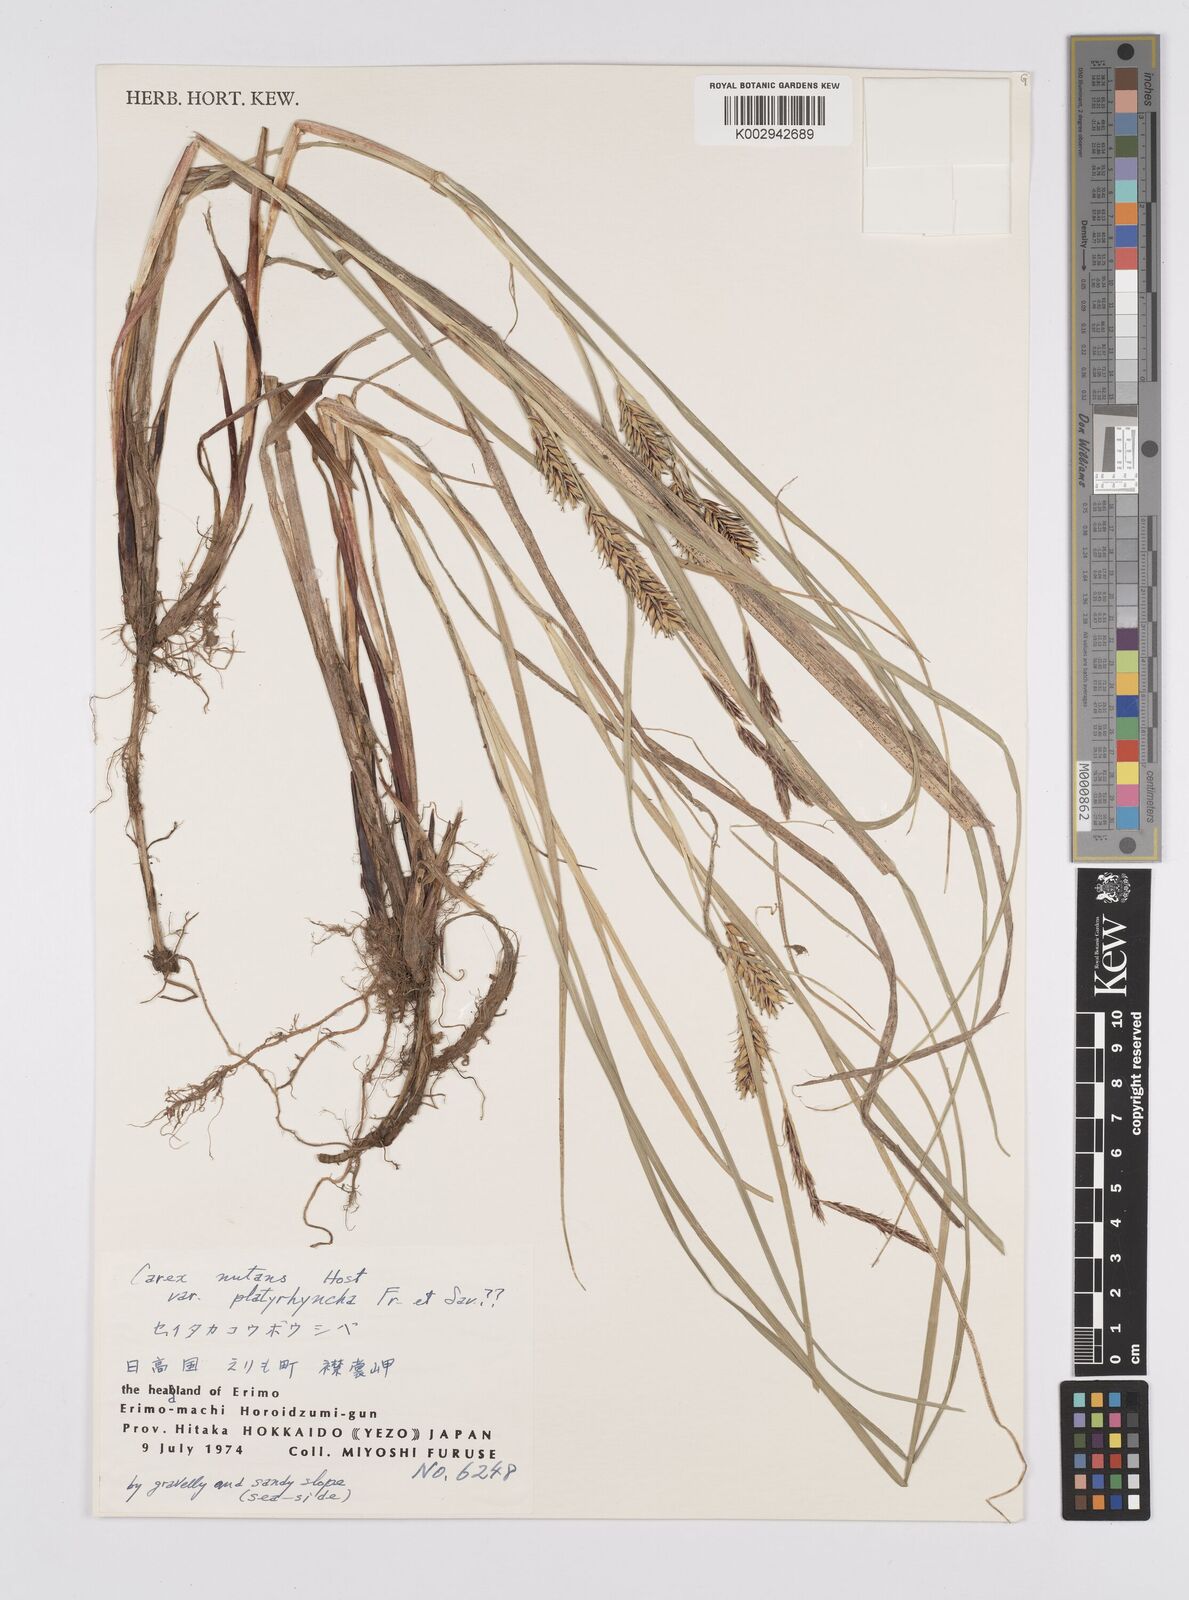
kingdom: Plantae
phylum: Tracheophyta
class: Liliopsida
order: Poales
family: Cyperaceae
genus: Carex
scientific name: Carex melanostachya
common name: Black-spiked sedge
